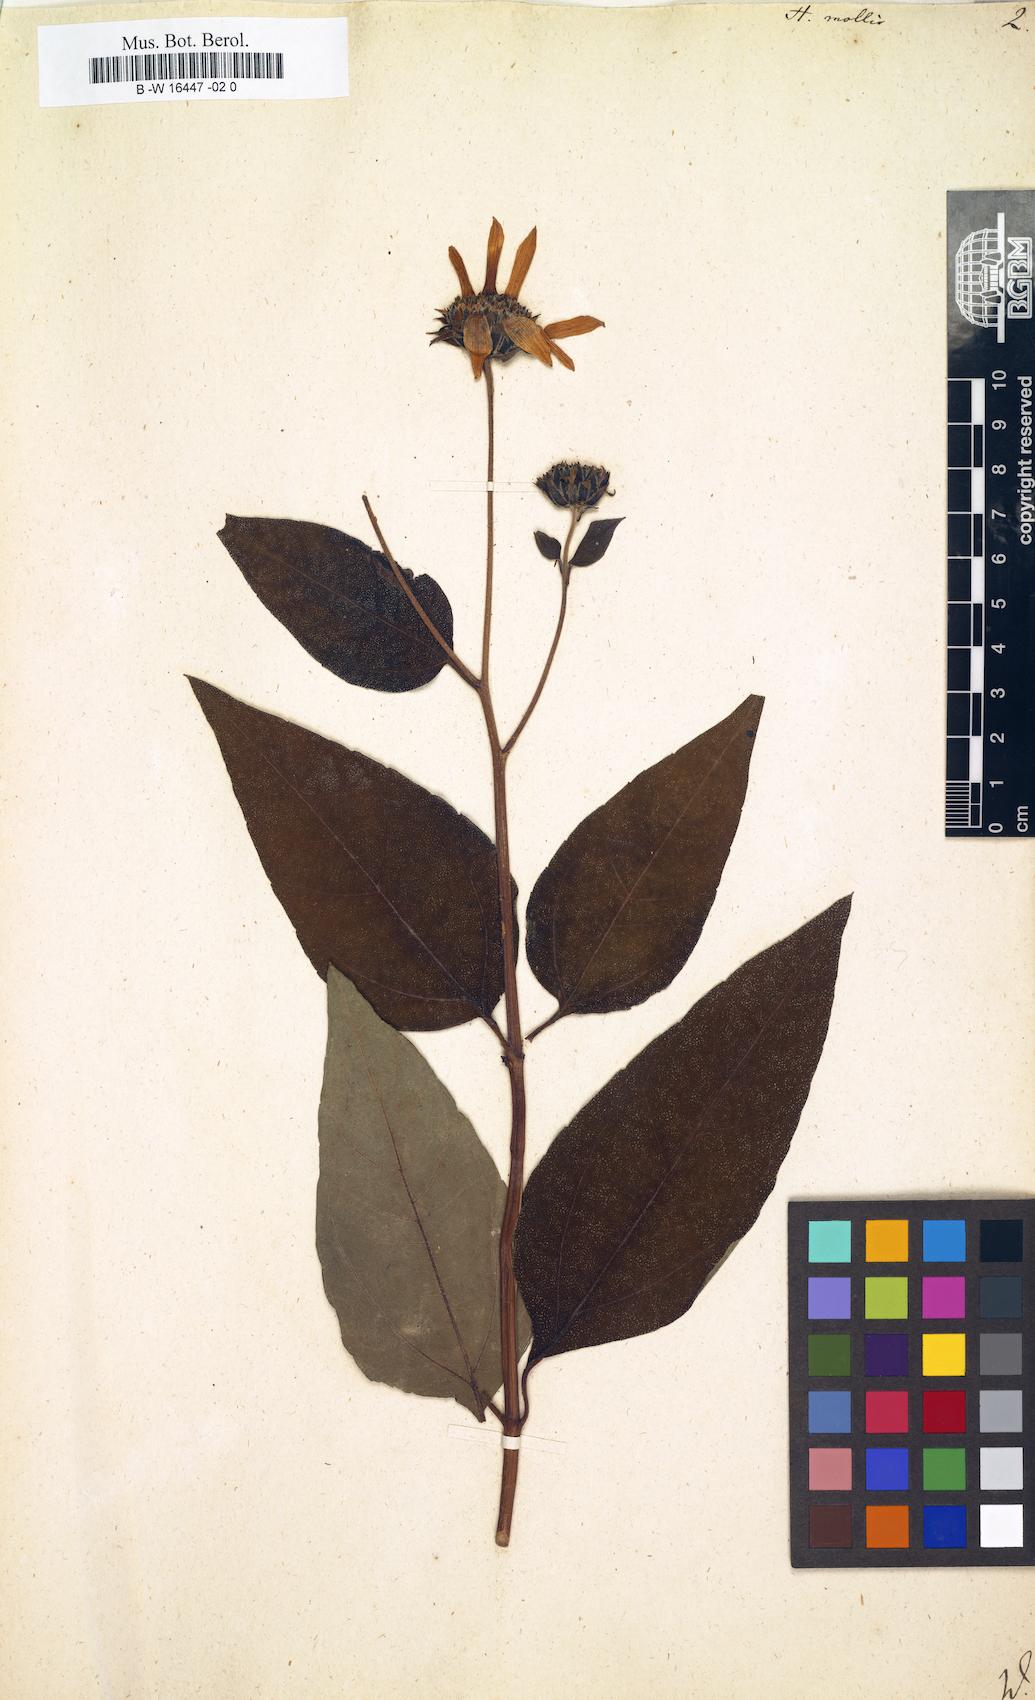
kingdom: Plantae
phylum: Tracheophyta
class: Magnoliopsida
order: Asterales
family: Asteraceae
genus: Helianthus
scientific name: Helianthus mollis
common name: Ashy sunflower
